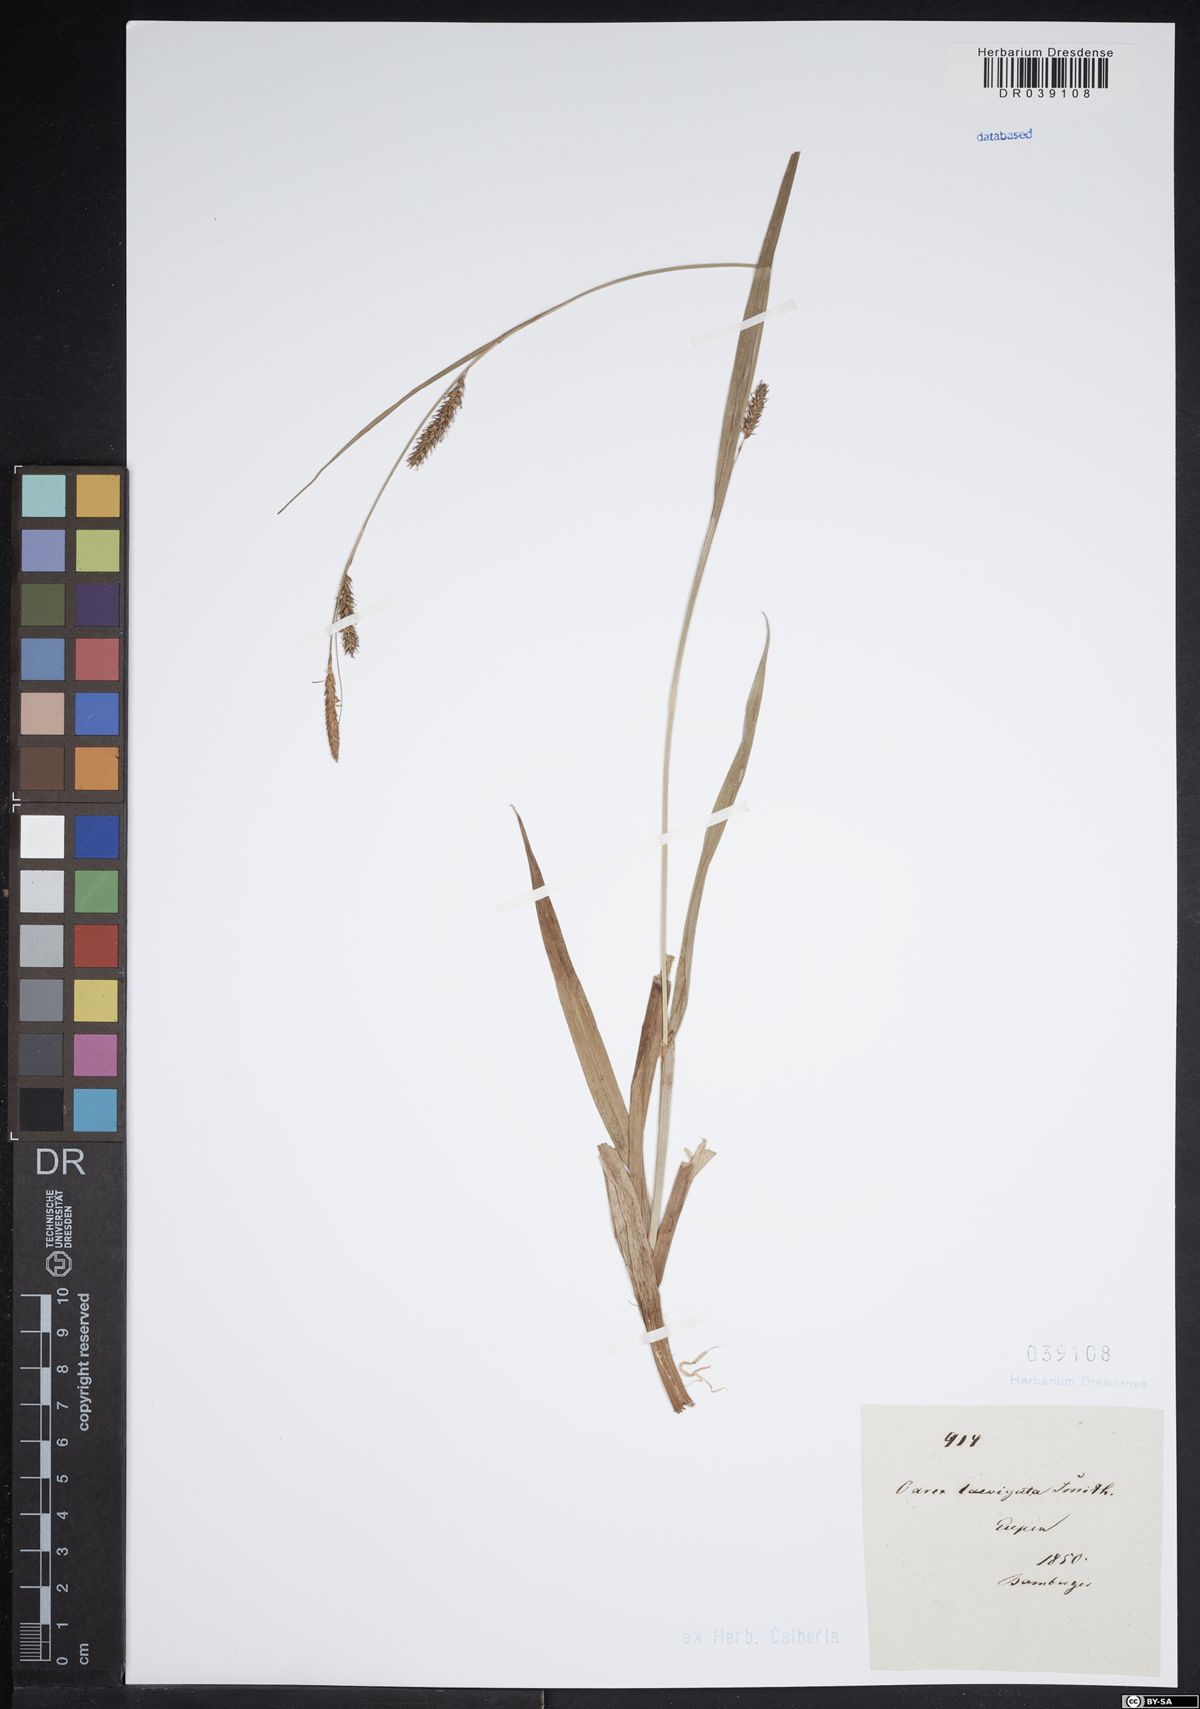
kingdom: Plantae
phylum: Tracheophyta
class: Liliopsida
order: Poales
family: Cyperaceae
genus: Carex
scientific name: Carex laevigata
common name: Smooth-stalked sedge
